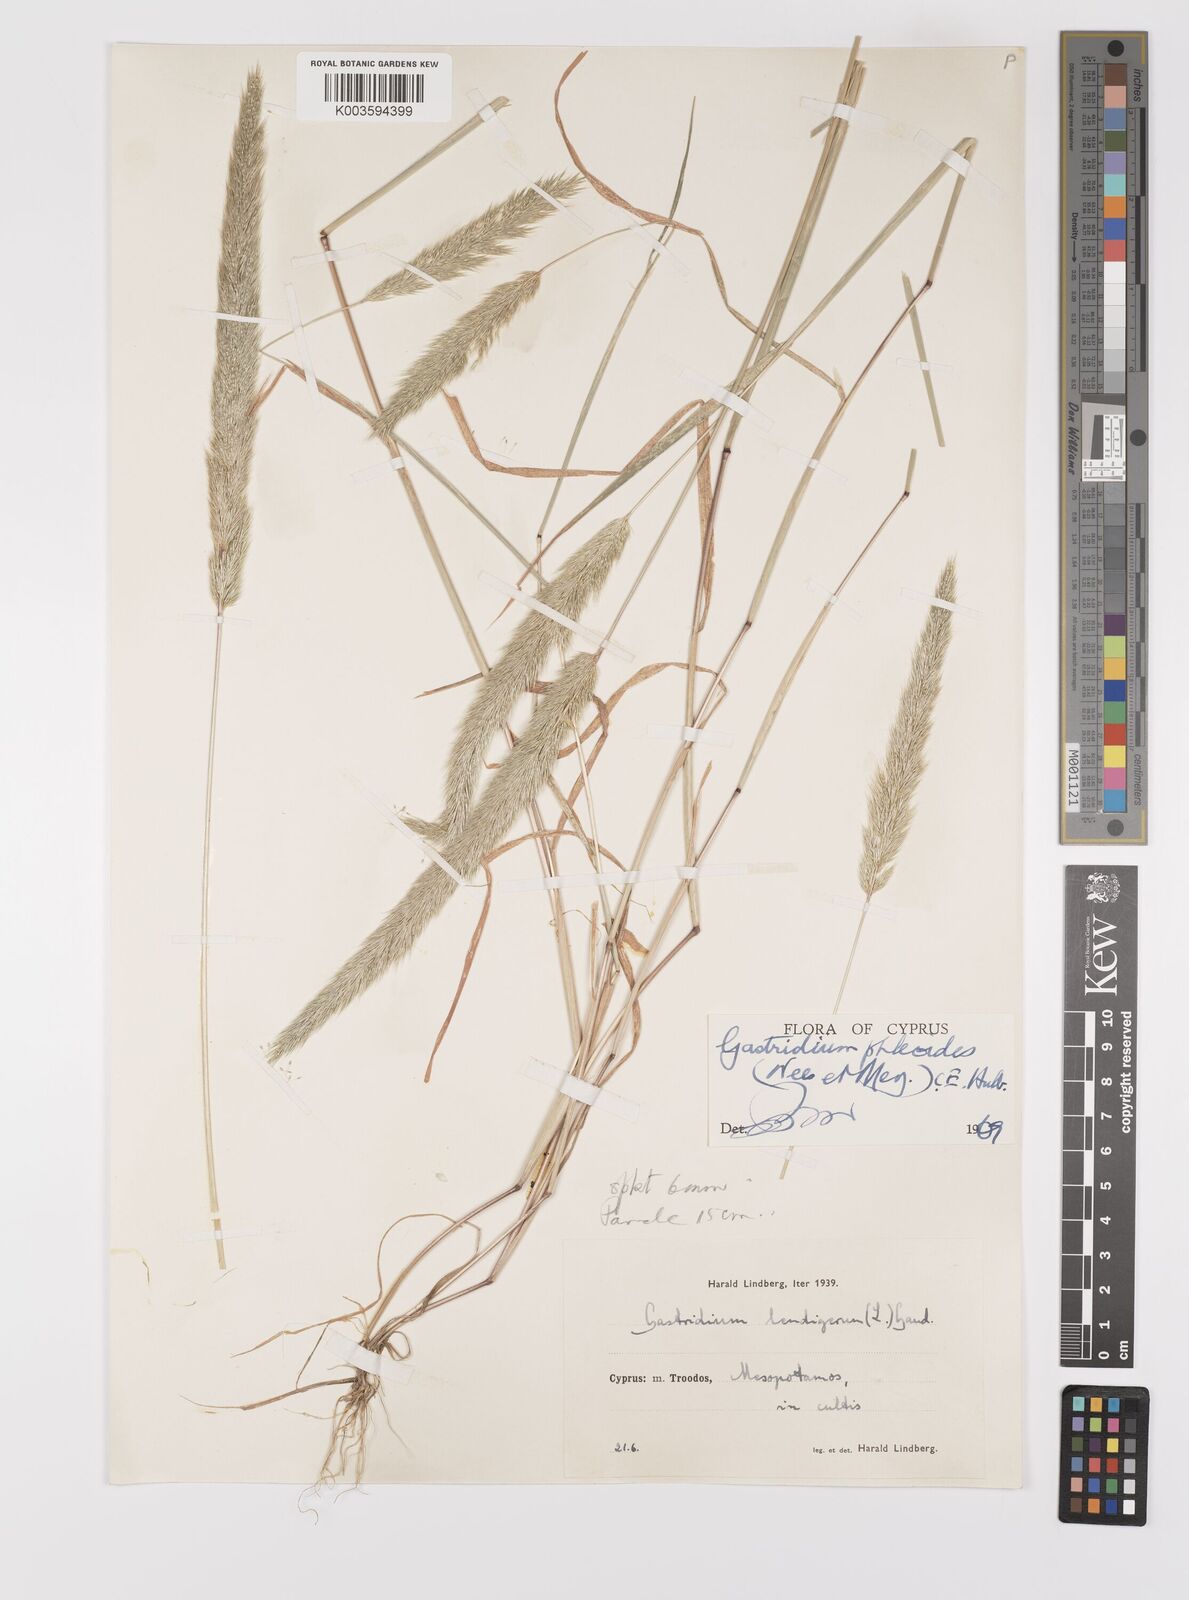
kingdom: Plantae
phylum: Tracheophyta
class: Liliopsida
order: Poales
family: Poaceae
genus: Gastridium
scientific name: Gastridium phleoides
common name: Nit grass
